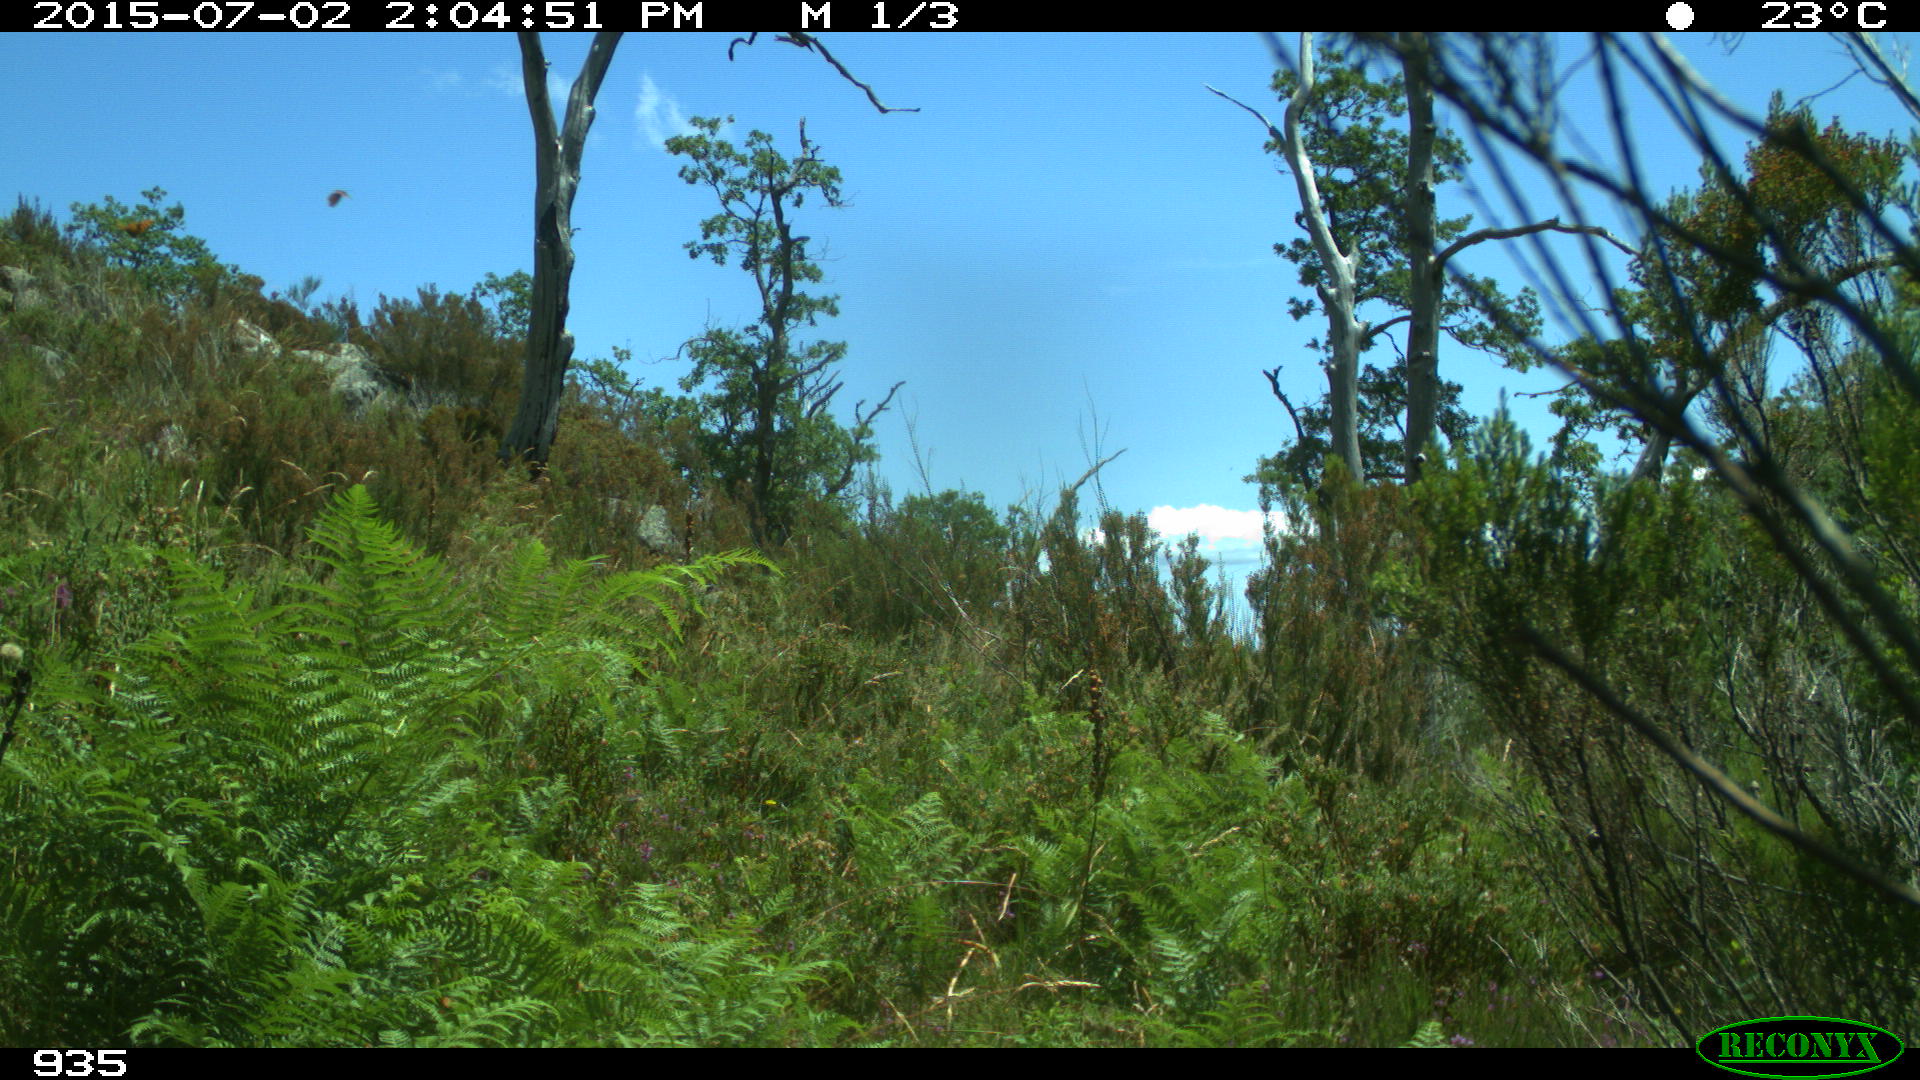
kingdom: Animalia
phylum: Chordata
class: Mammalia
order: Artiodactyla
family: Suidae
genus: Sus
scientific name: Sus scrofa
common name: Wild boar
